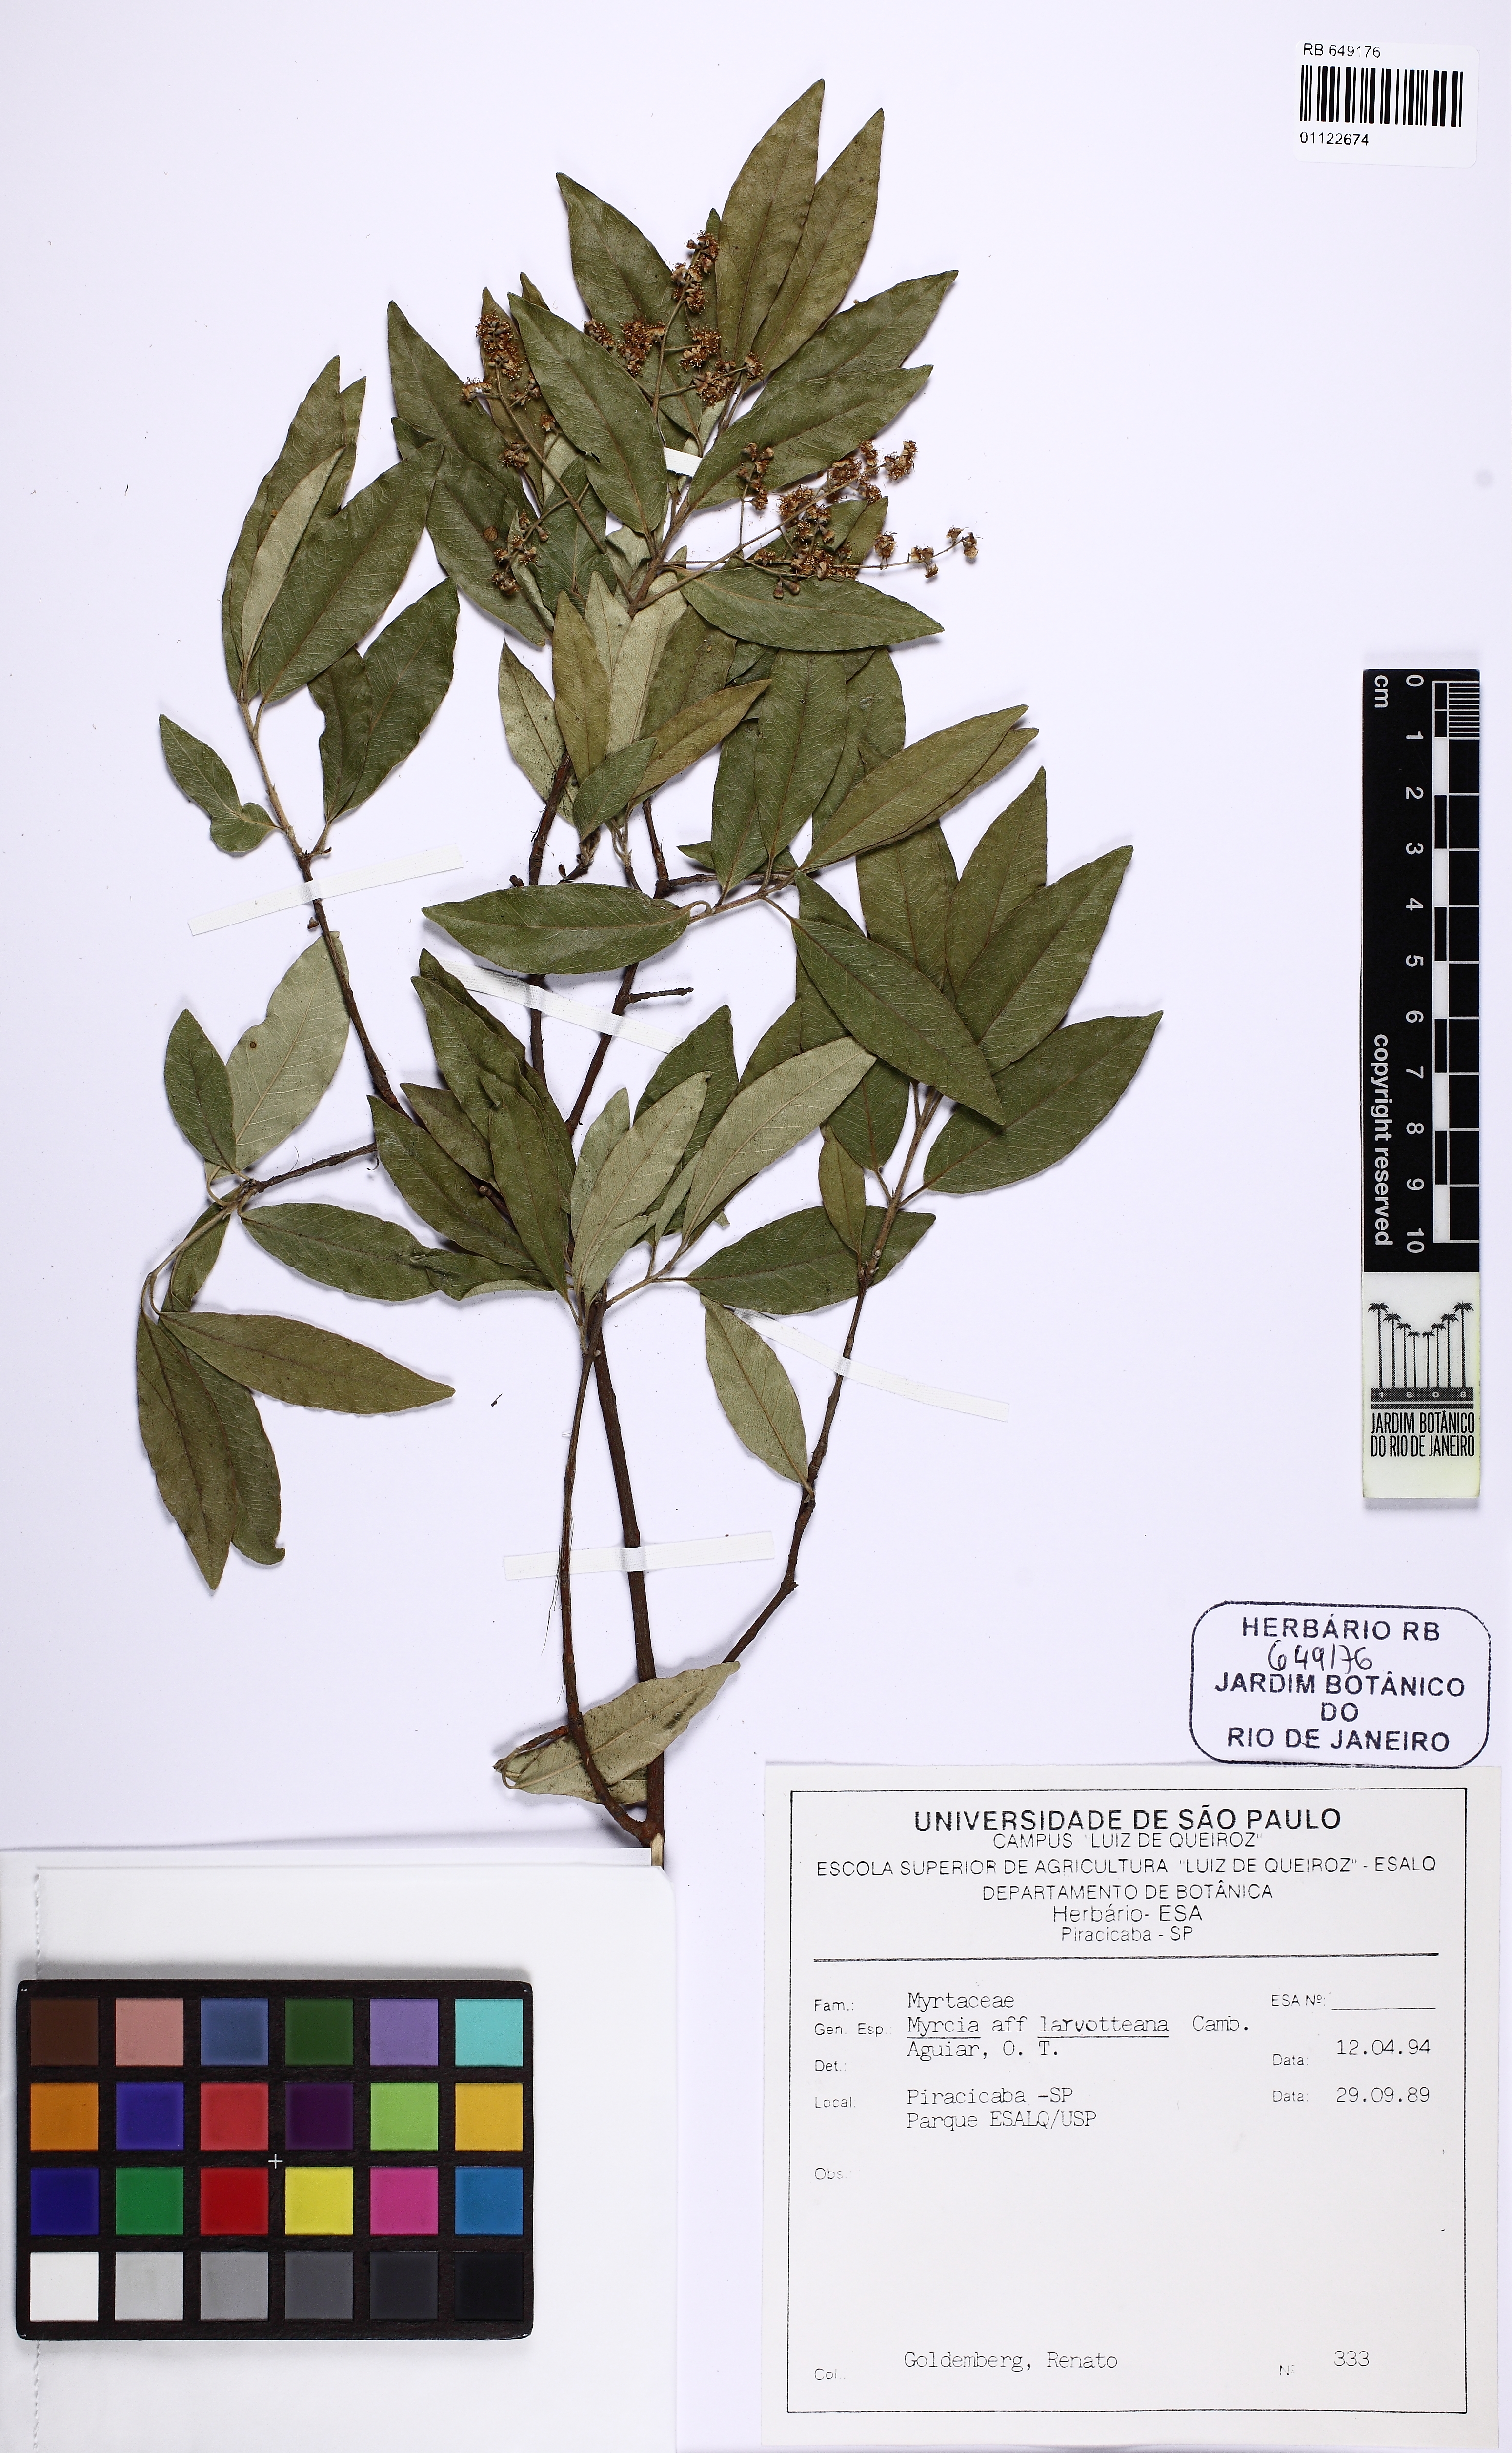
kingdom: Plantae
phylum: Tracheophyta
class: Magnoliopsida
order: Myrtales
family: Myrtaceae
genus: Myrcia
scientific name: Myrcia laruotteana
